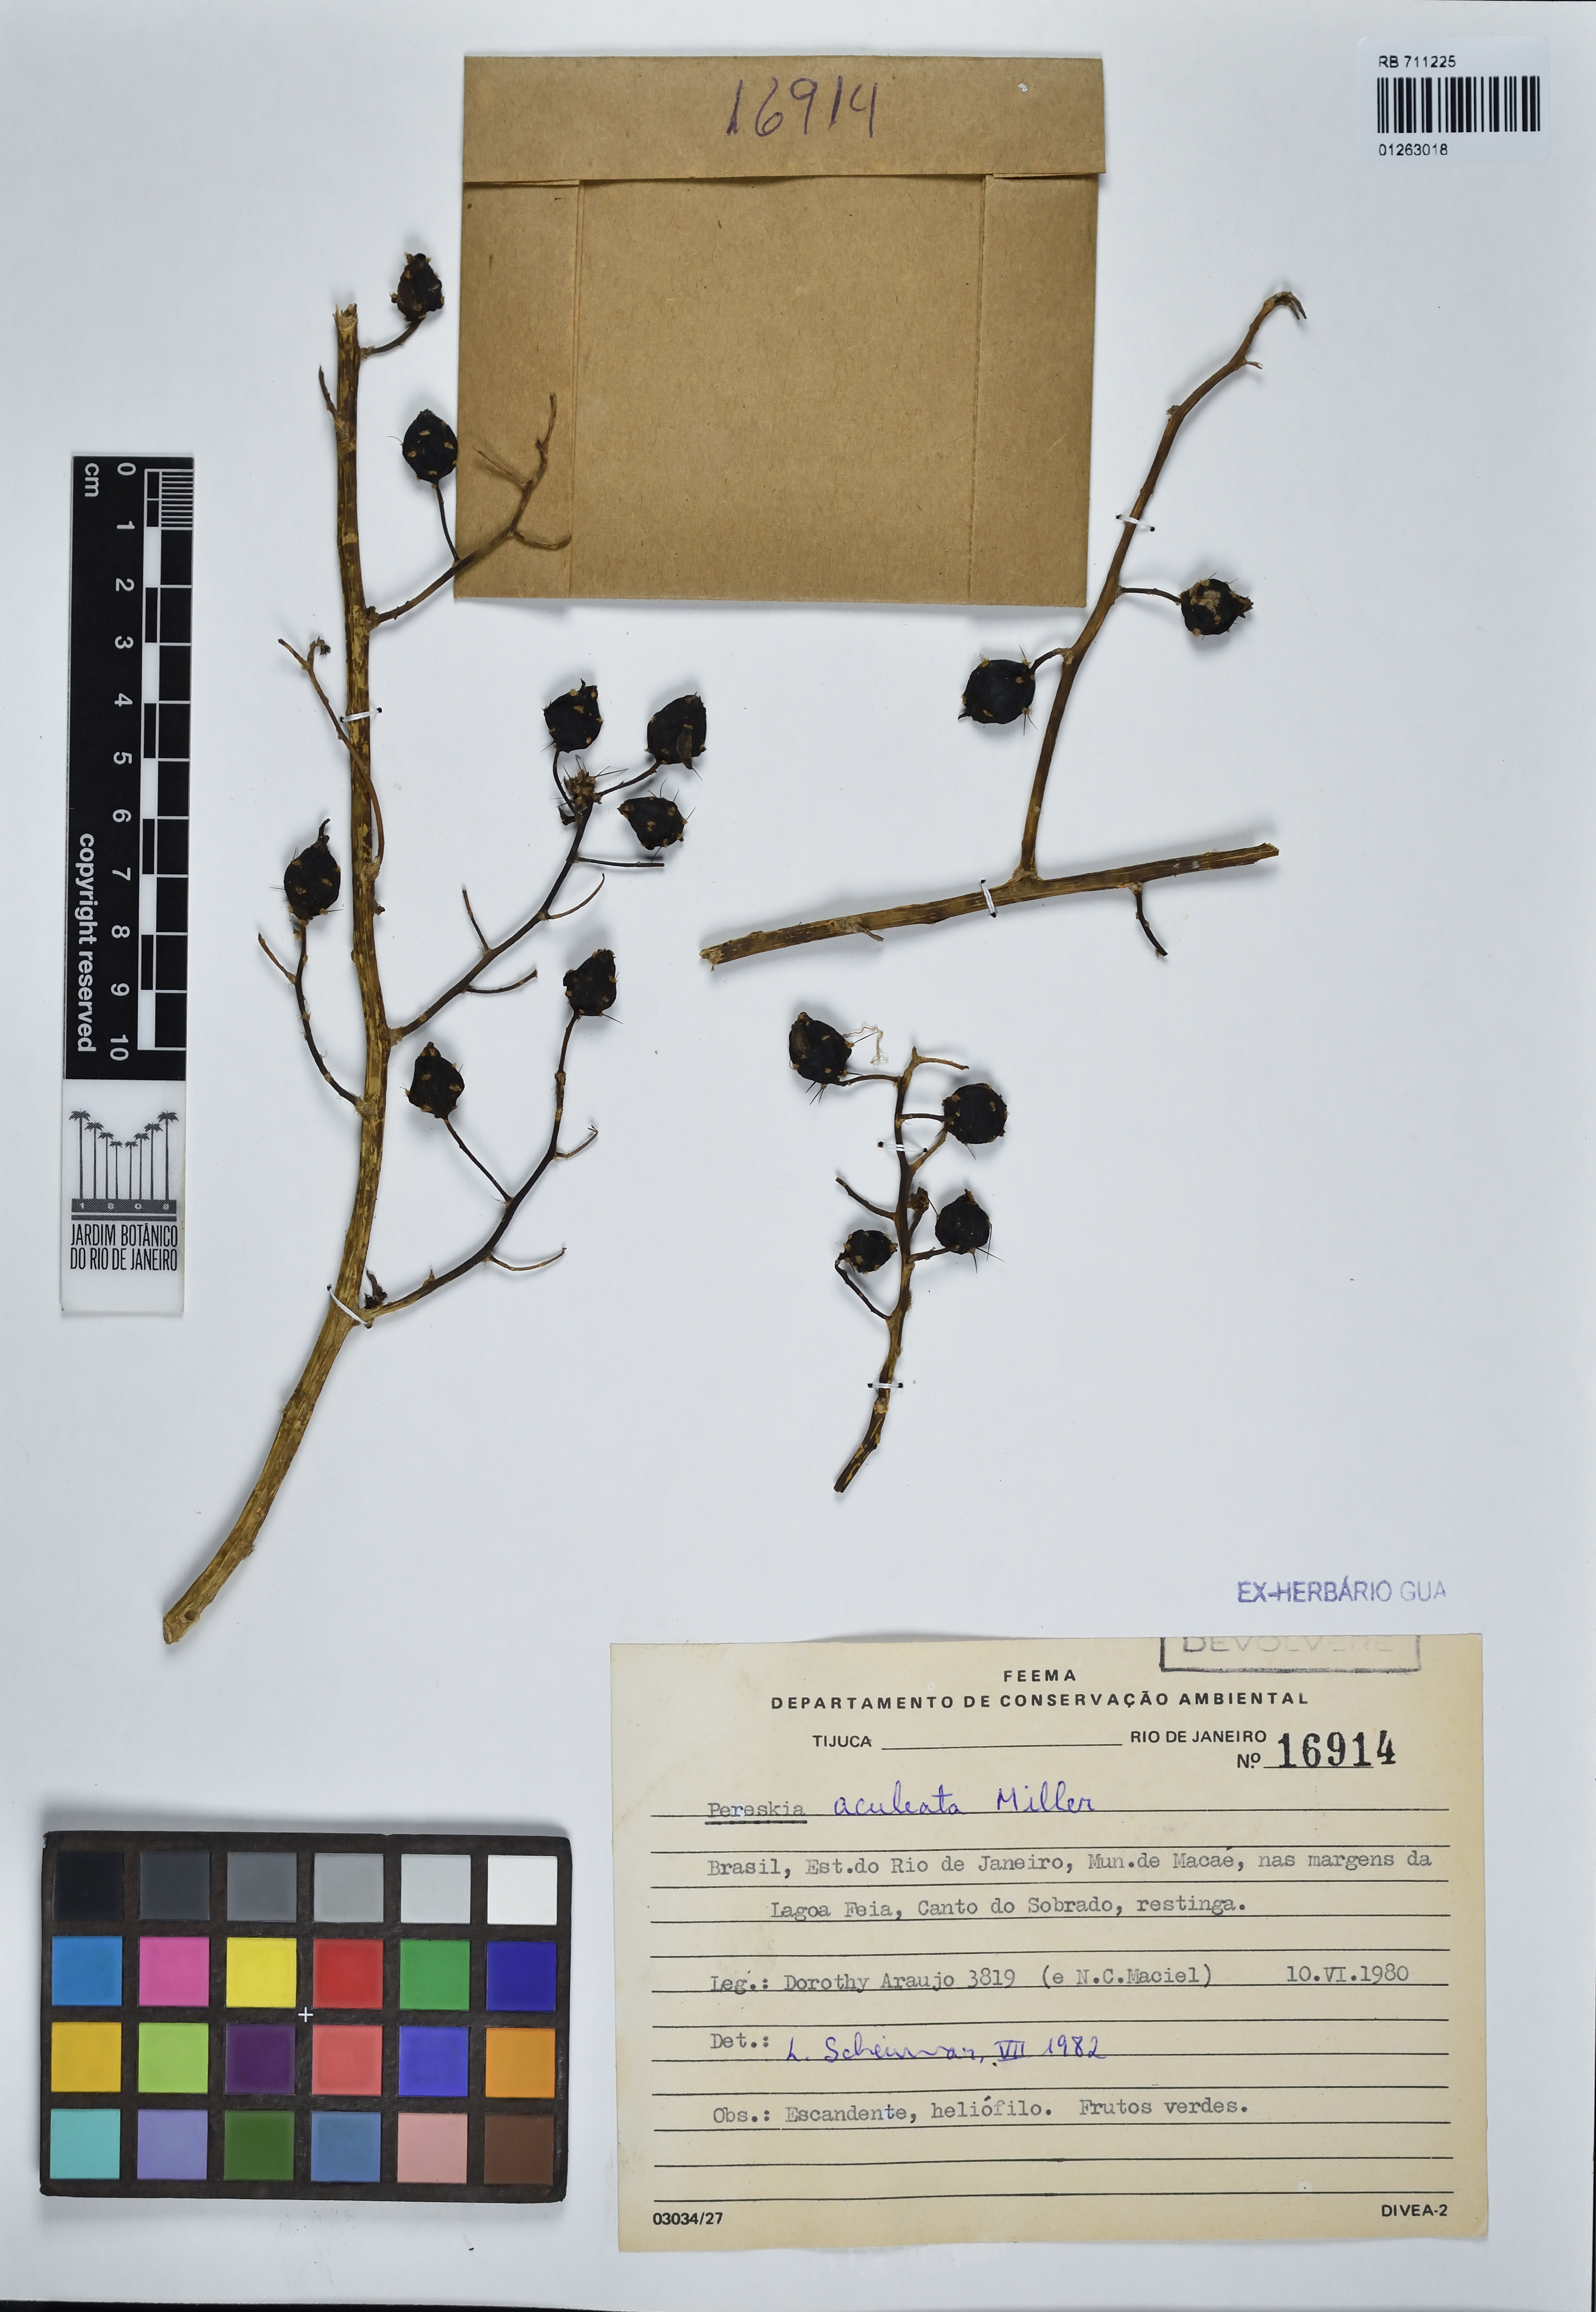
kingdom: Plantae
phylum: Tracheophyta
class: Magnoliopsida
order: Caryophyllales
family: Cactaceae
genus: Pereskia
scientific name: Pereskia aculeata
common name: Barbados gooseberry
